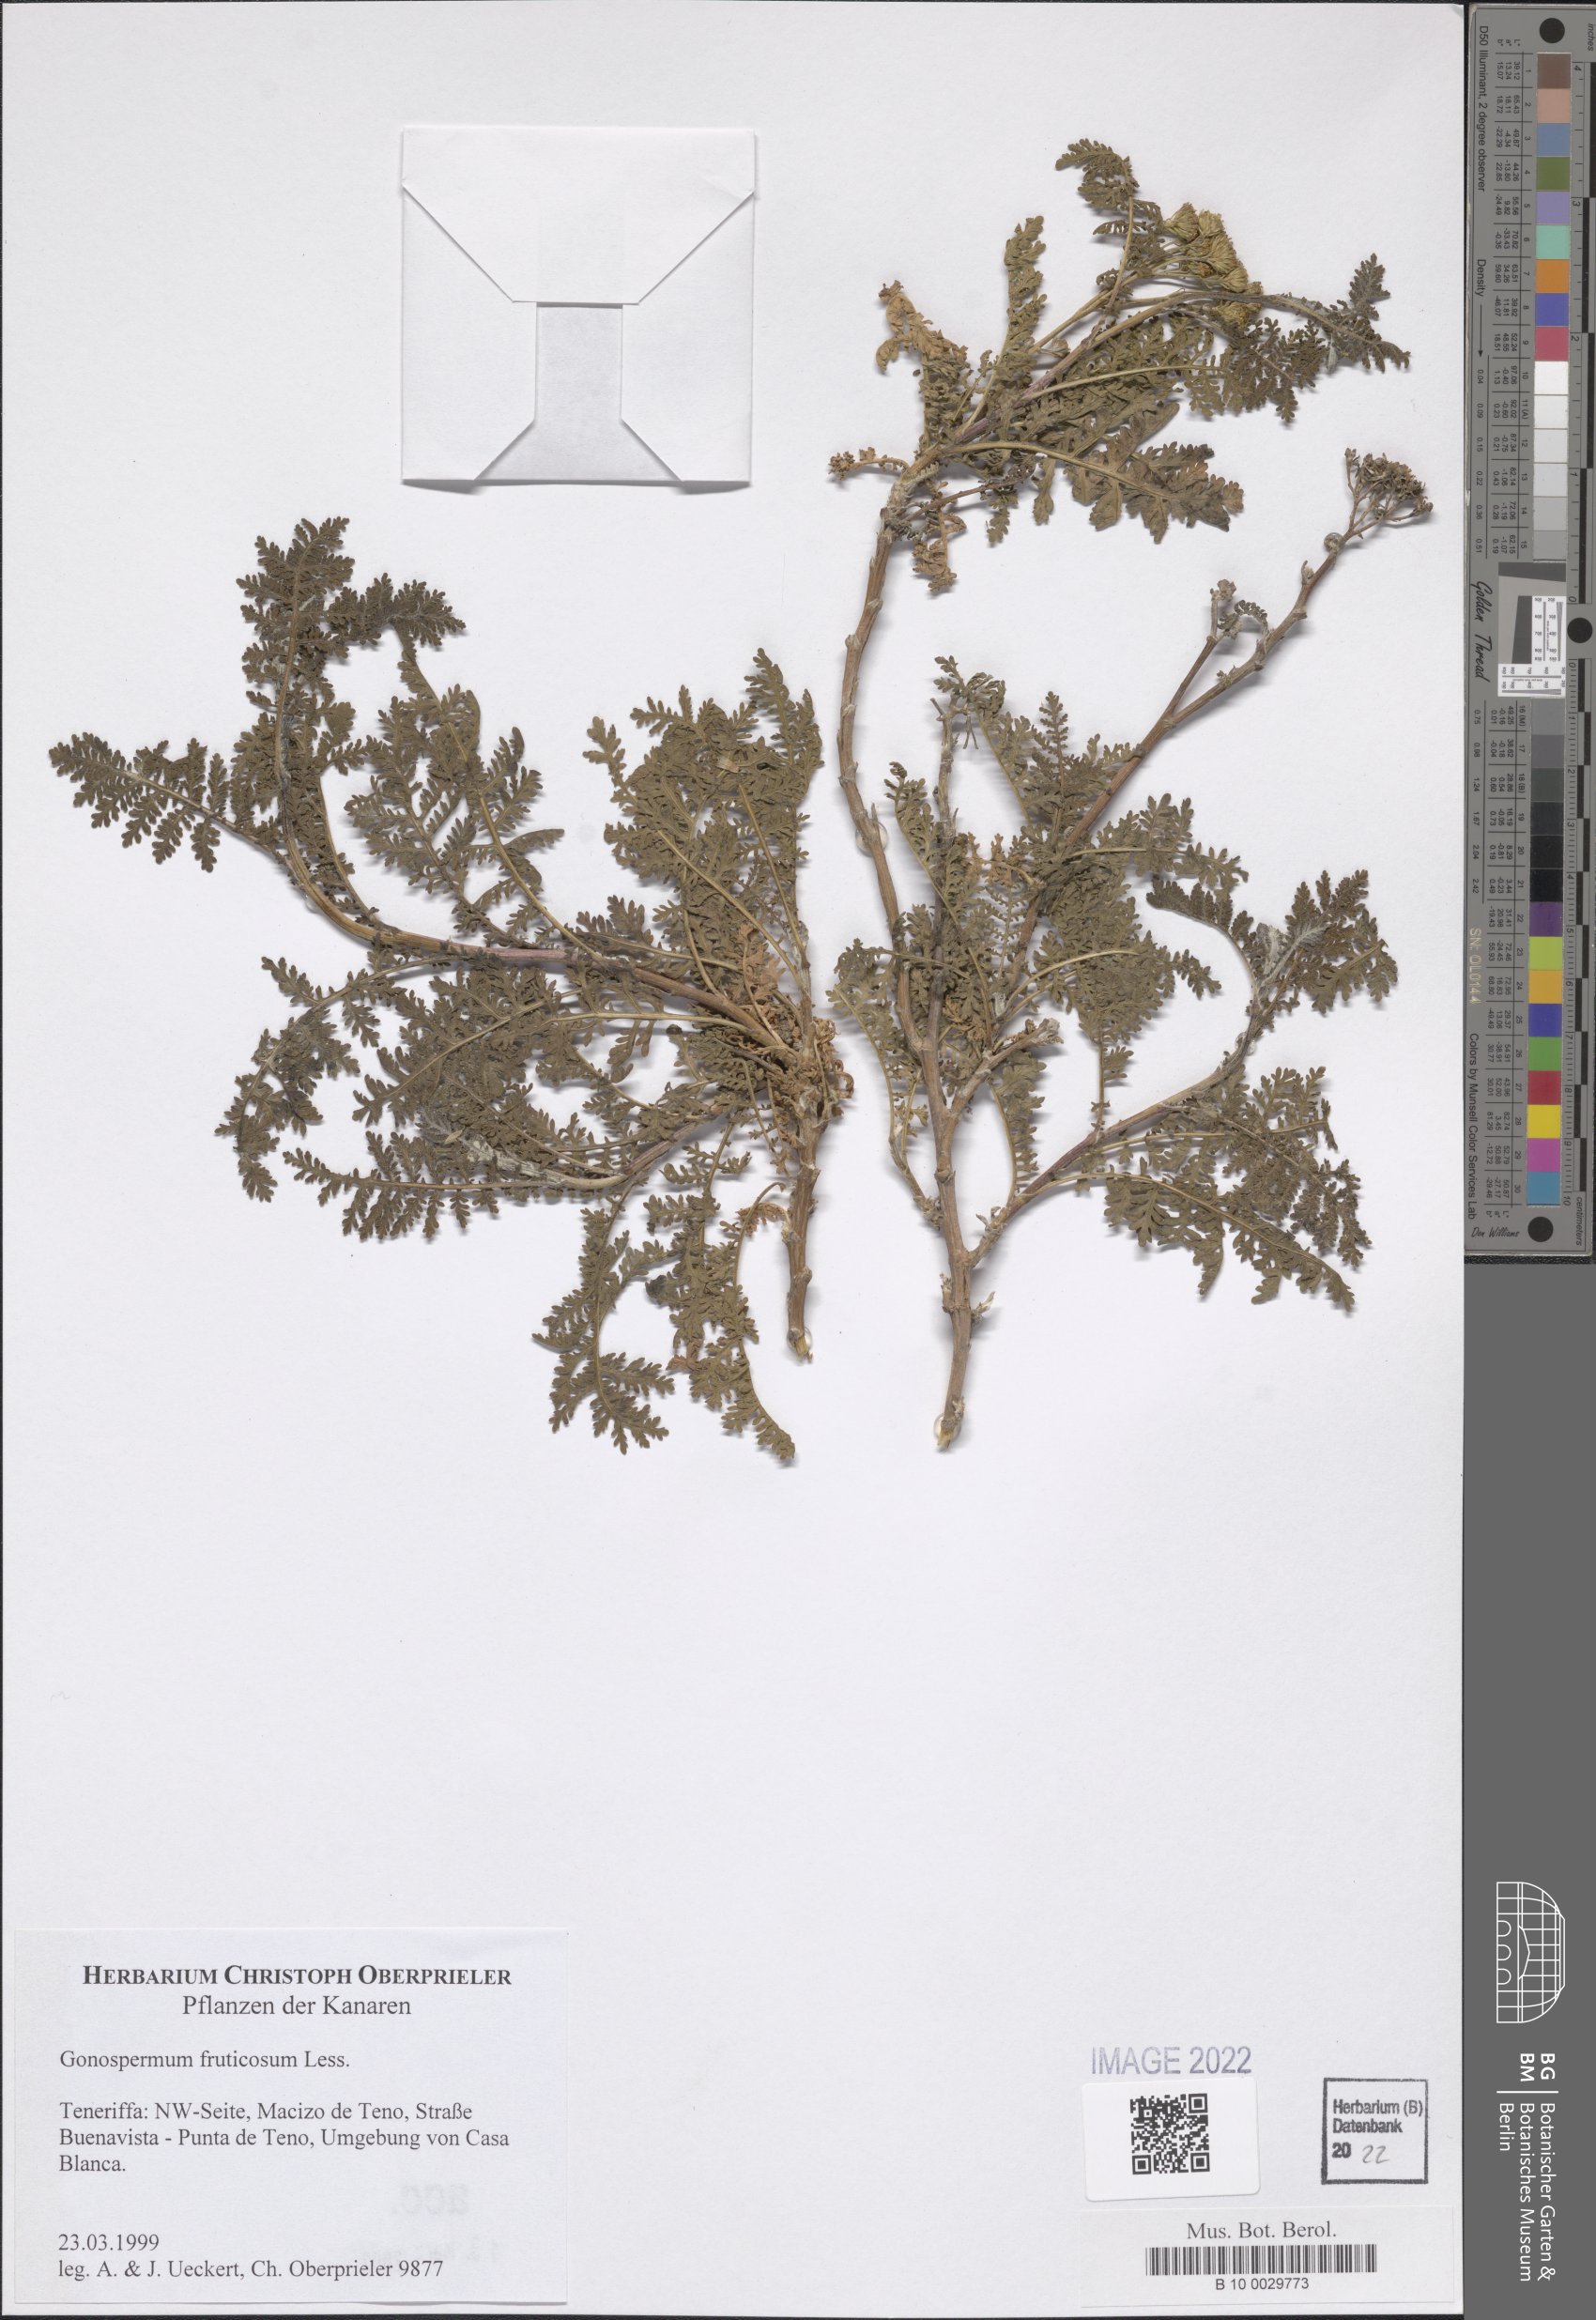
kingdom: Plantae
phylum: Tracheophyta
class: Magnoliopsida
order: Asterales
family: Asteraceae
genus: Gonospermum
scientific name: Gonospermum fruticosum
